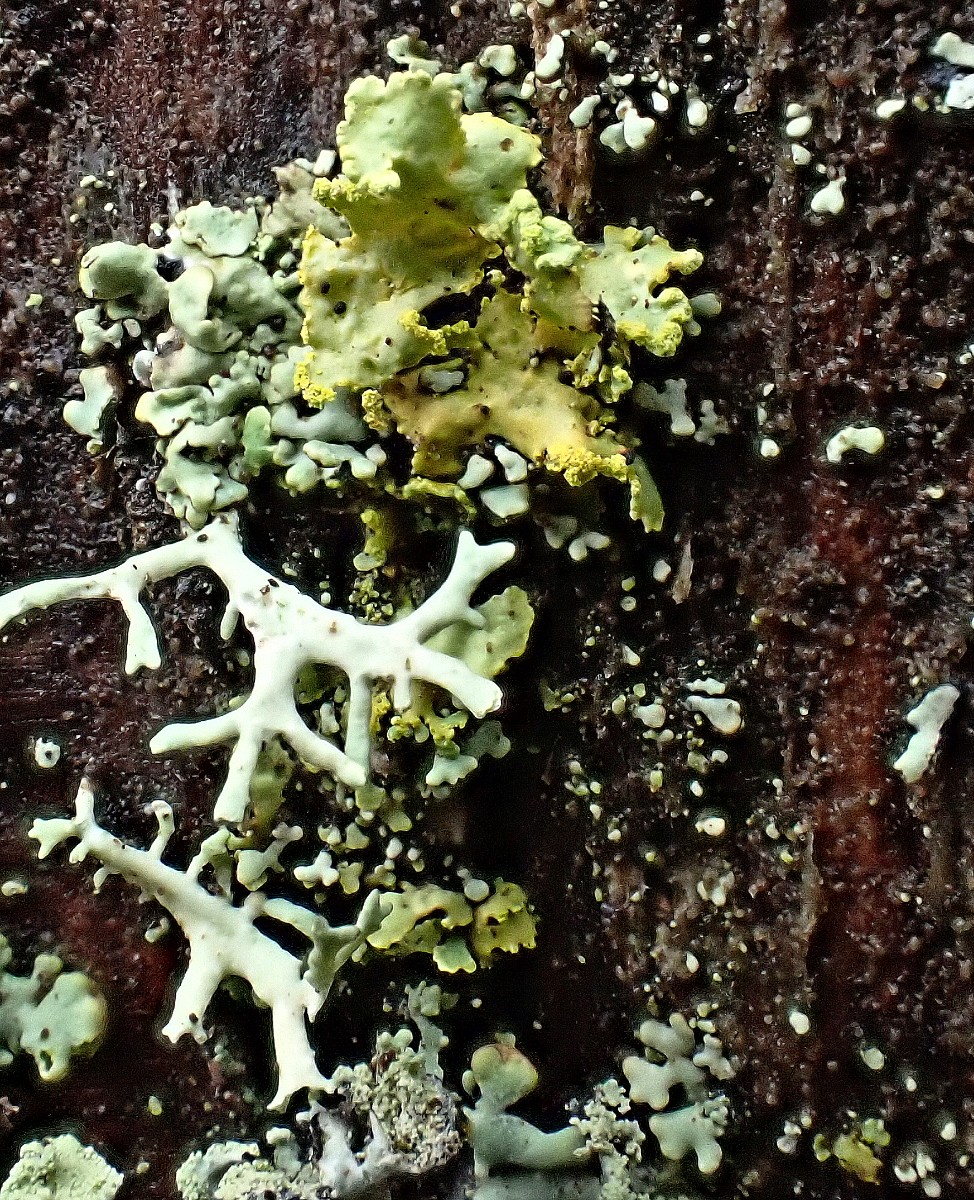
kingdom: Fungi
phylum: Ascomycota
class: Lecanoromycetes
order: Lecanorales
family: Parmeliaceae
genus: Vulpicida
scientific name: Vulpicida pinastri
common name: gul kruslav
